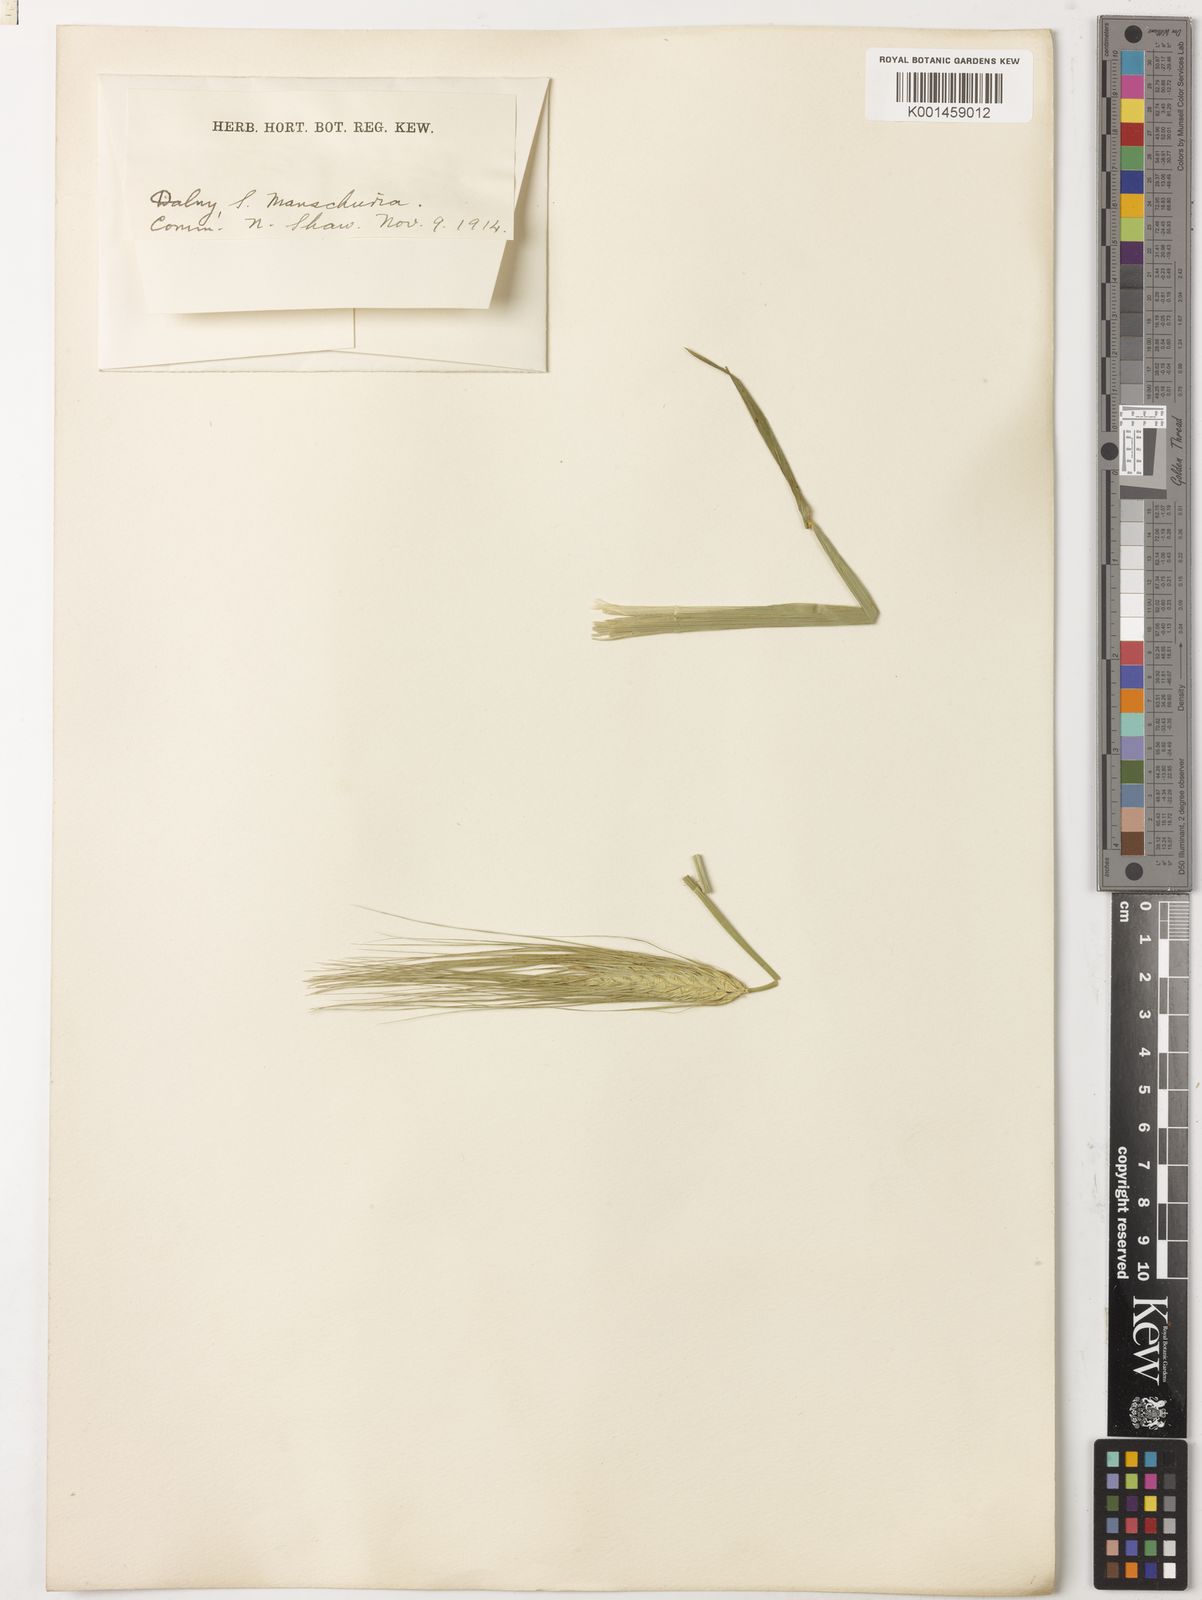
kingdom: Plantae
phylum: Tracheophyta
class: Liliopsida
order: Poales
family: Poaceae
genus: Hordeum
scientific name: Hordeum vulgare
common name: Common barley
